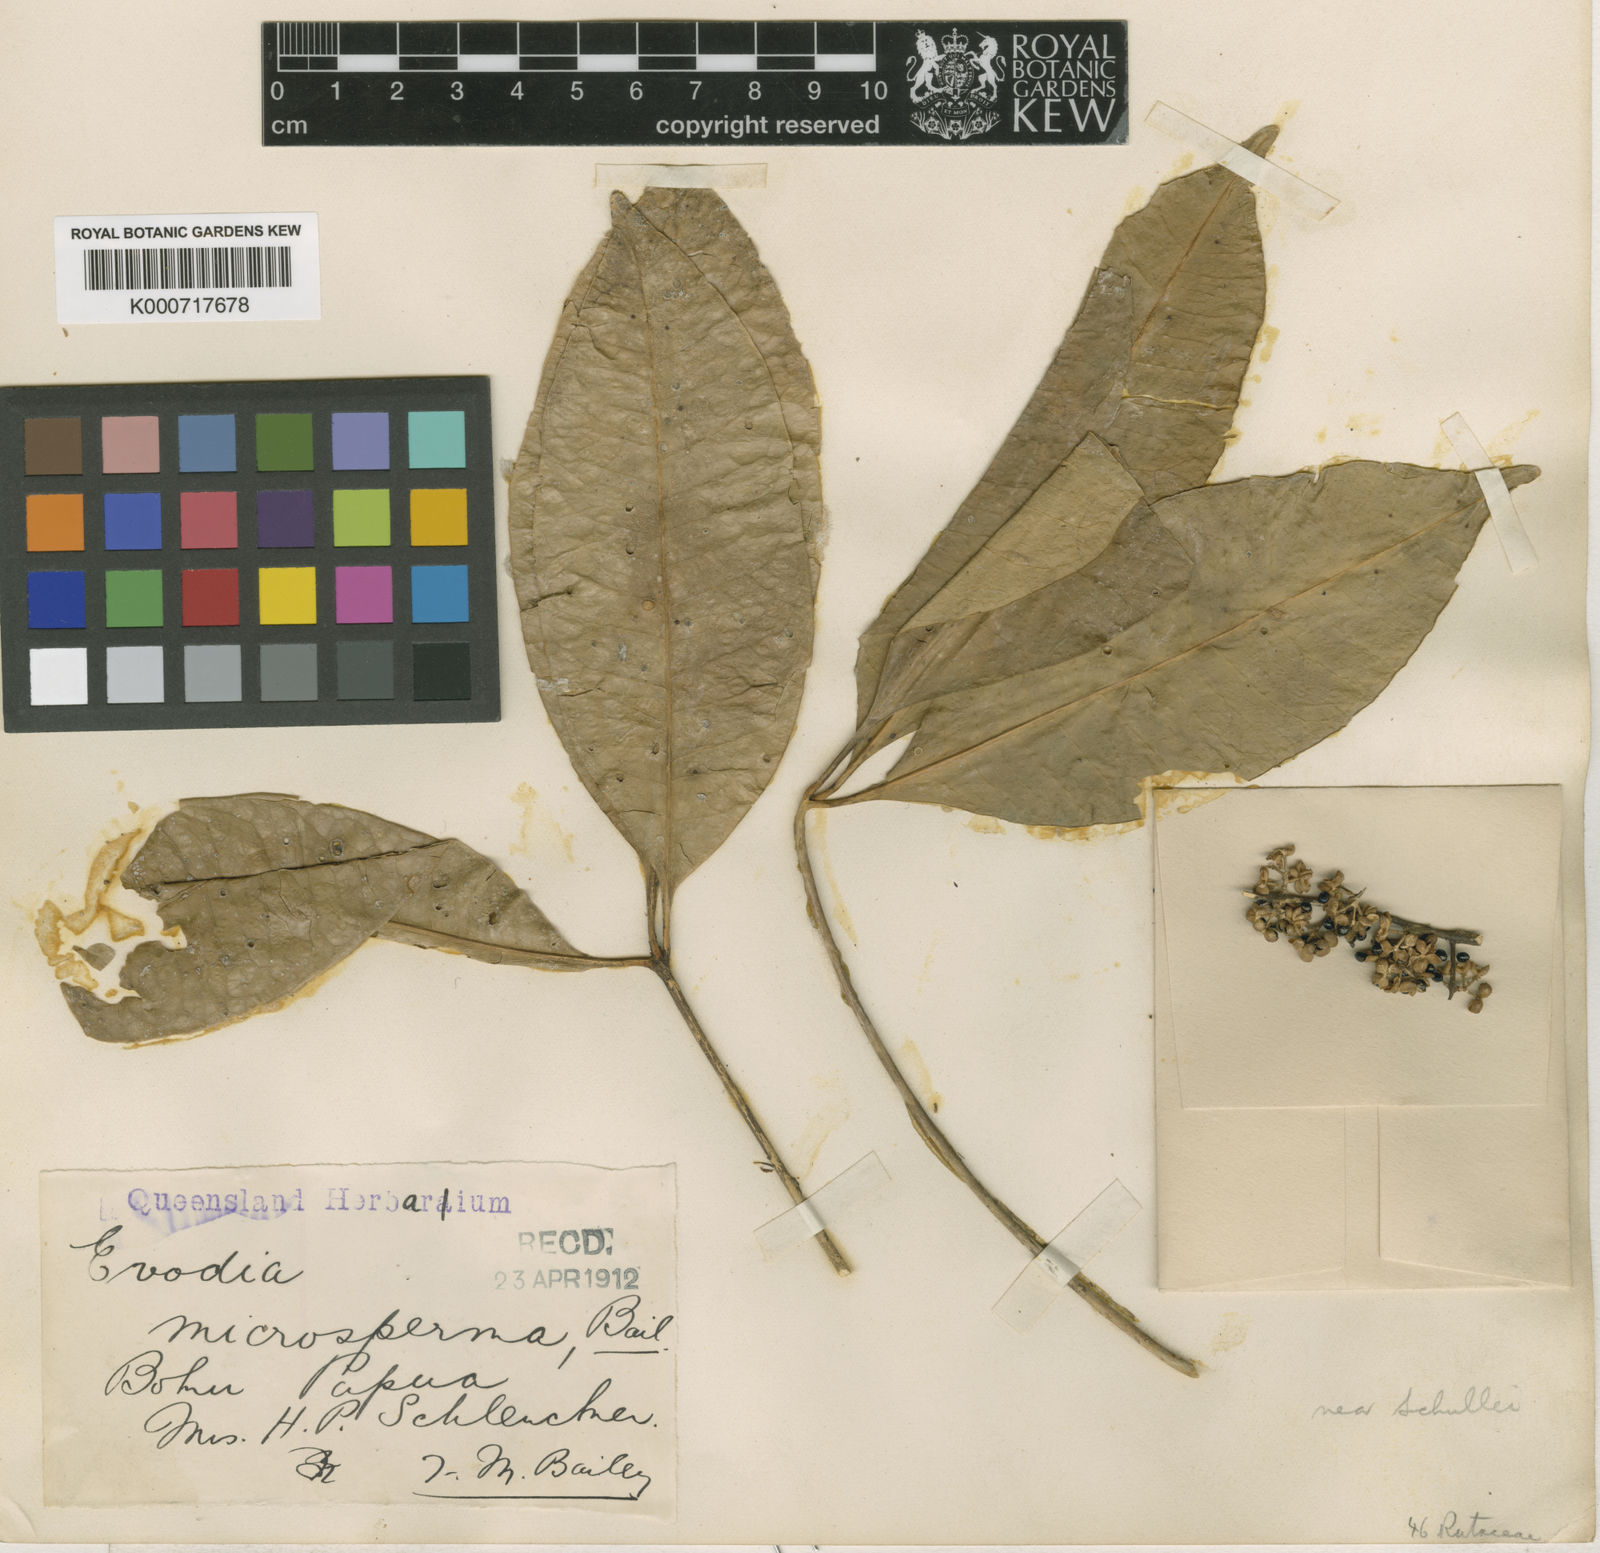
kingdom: Plantae
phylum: Tracheophyta
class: Magnoliopsida
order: Sapindales
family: Rutaceae
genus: Melicope
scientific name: Melicope triphylla
